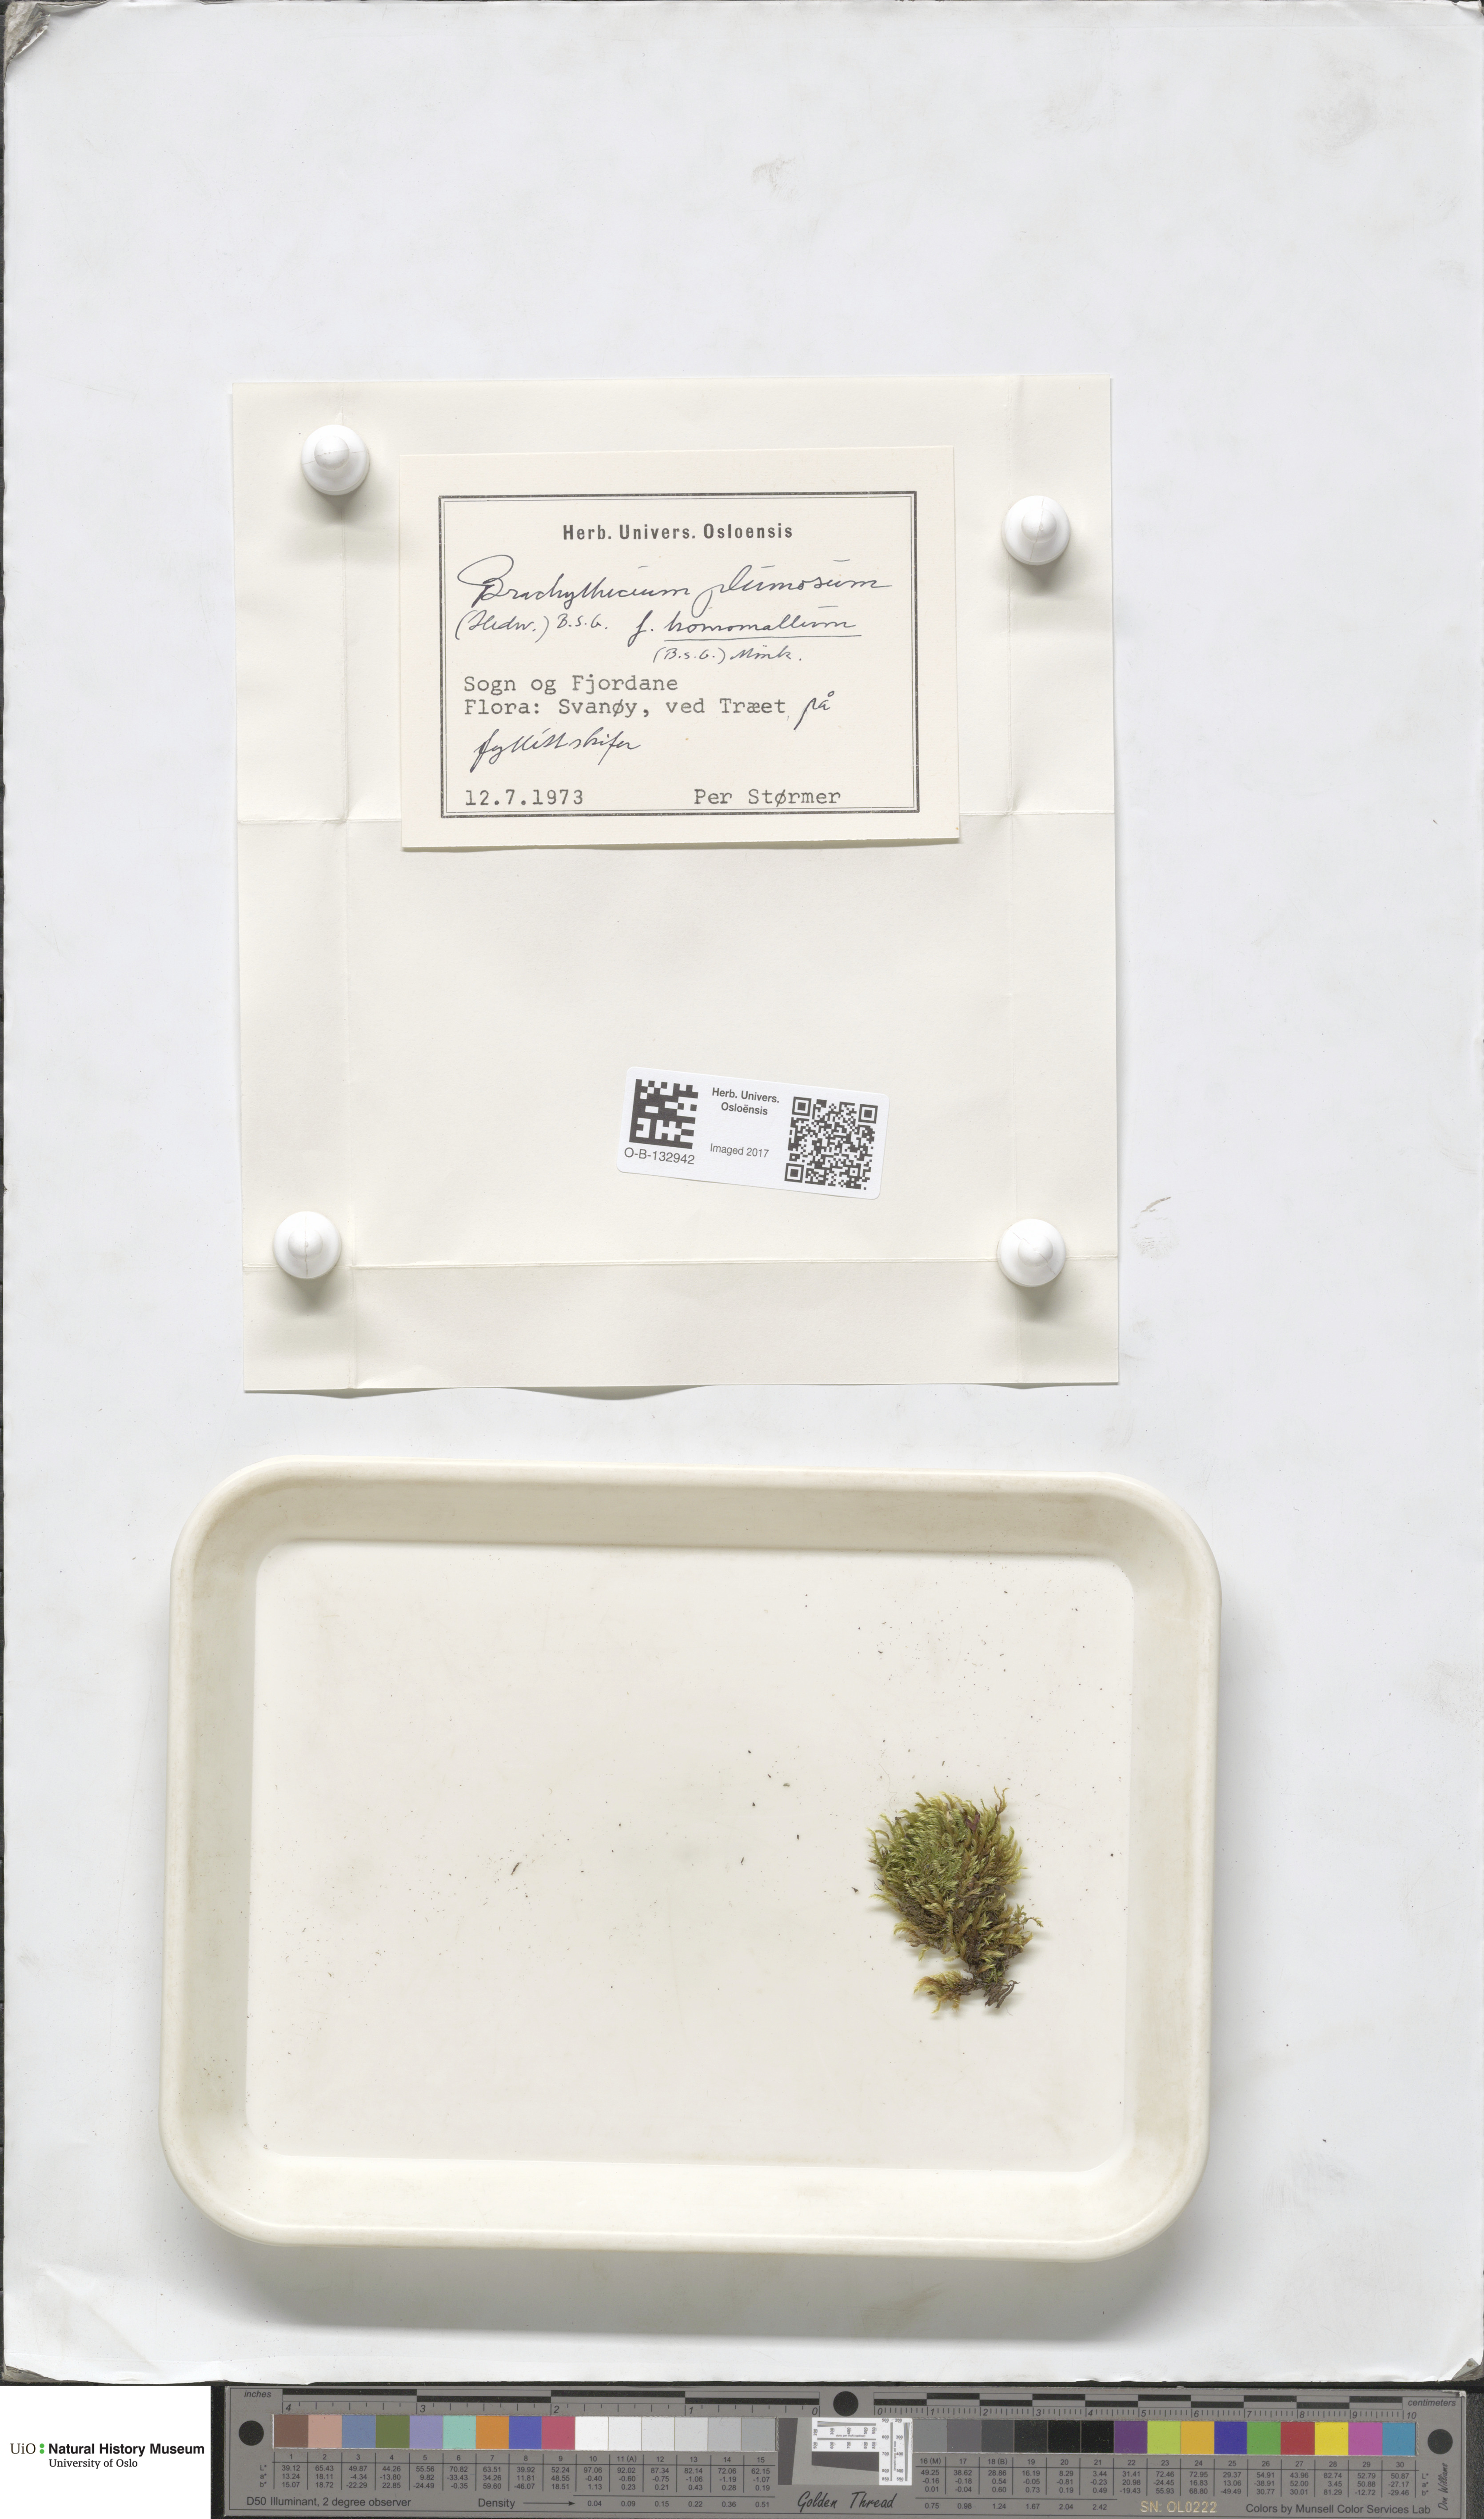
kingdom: Plantae
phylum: Bryophyta
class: Bryopsida
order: Hypnales
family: Brachytheciaceae
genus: Sciuro-hypnum
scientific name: Sciuro-hypnum plumosum
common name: Rusty feather-moss
